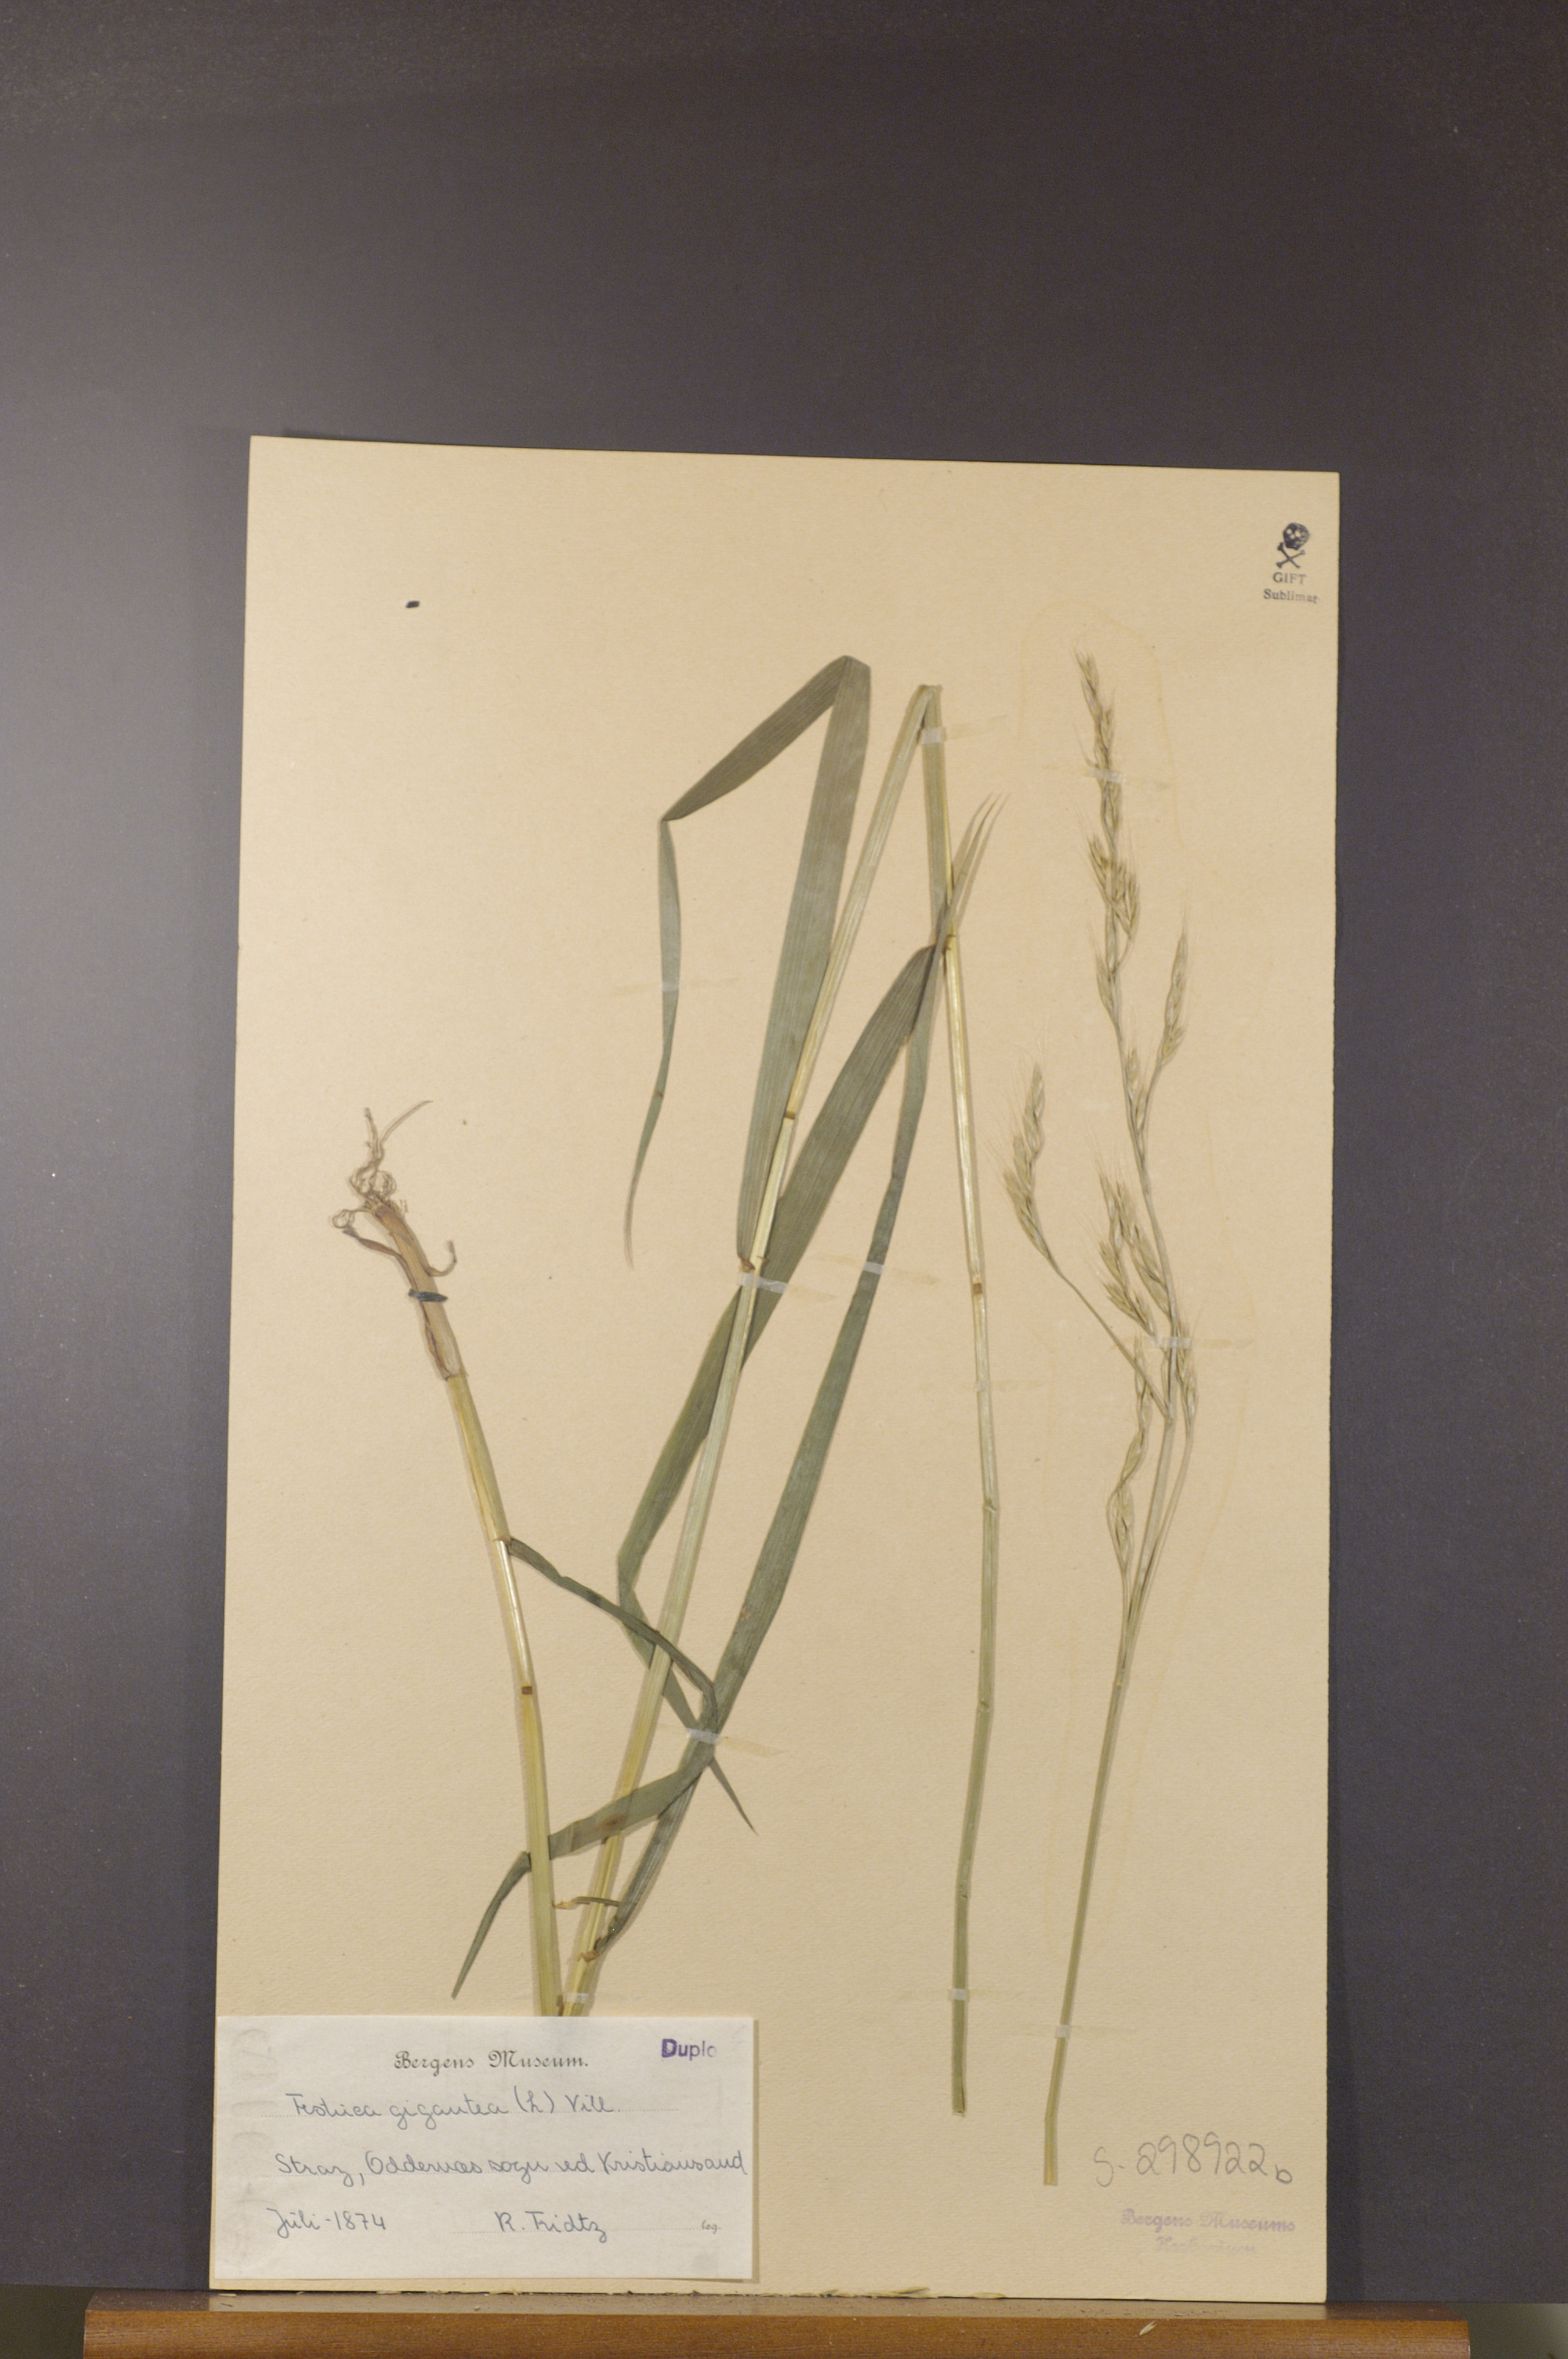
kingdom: Plantae
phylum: Tracheophyta
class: Liliopsida
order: Poales
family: Poaceae
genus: Lolium
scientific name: Lolium giganteum
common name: Giant fescue
